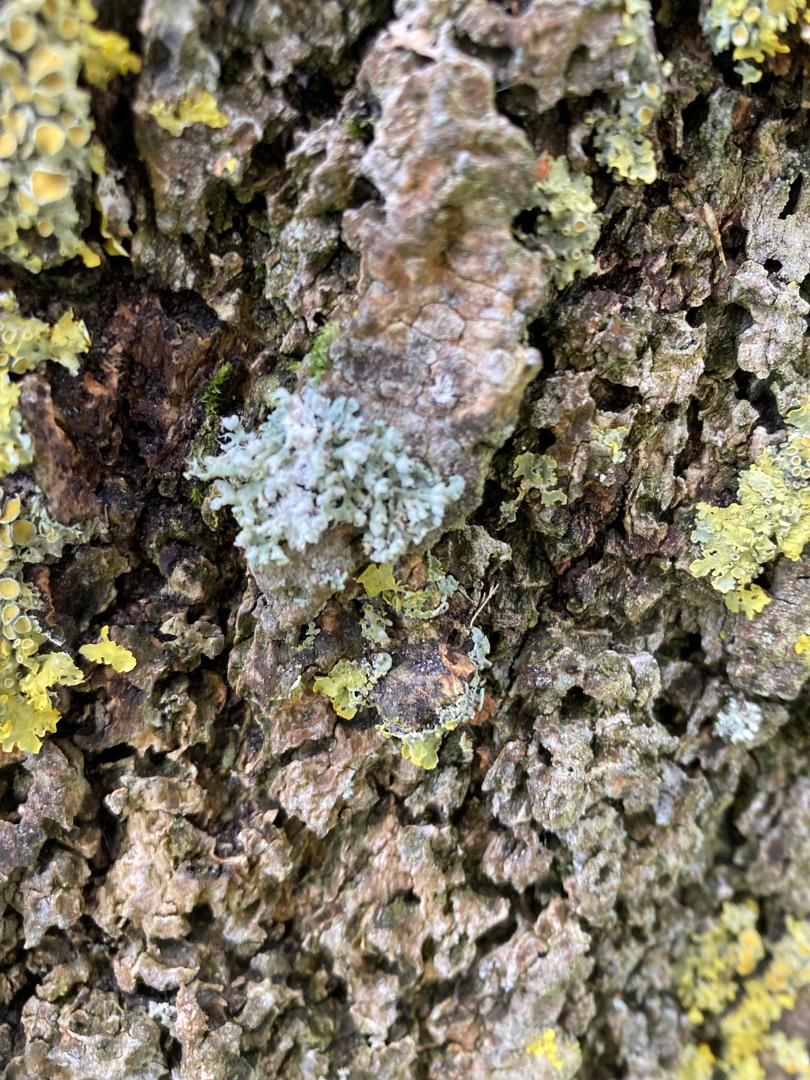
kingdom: Fungi
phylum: Ascomycota
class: Lecanoromycetes
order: Caliciales
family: Physciaceae
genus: Physcia
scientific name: Physcia adscendens
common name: Hætte-rosetlav
